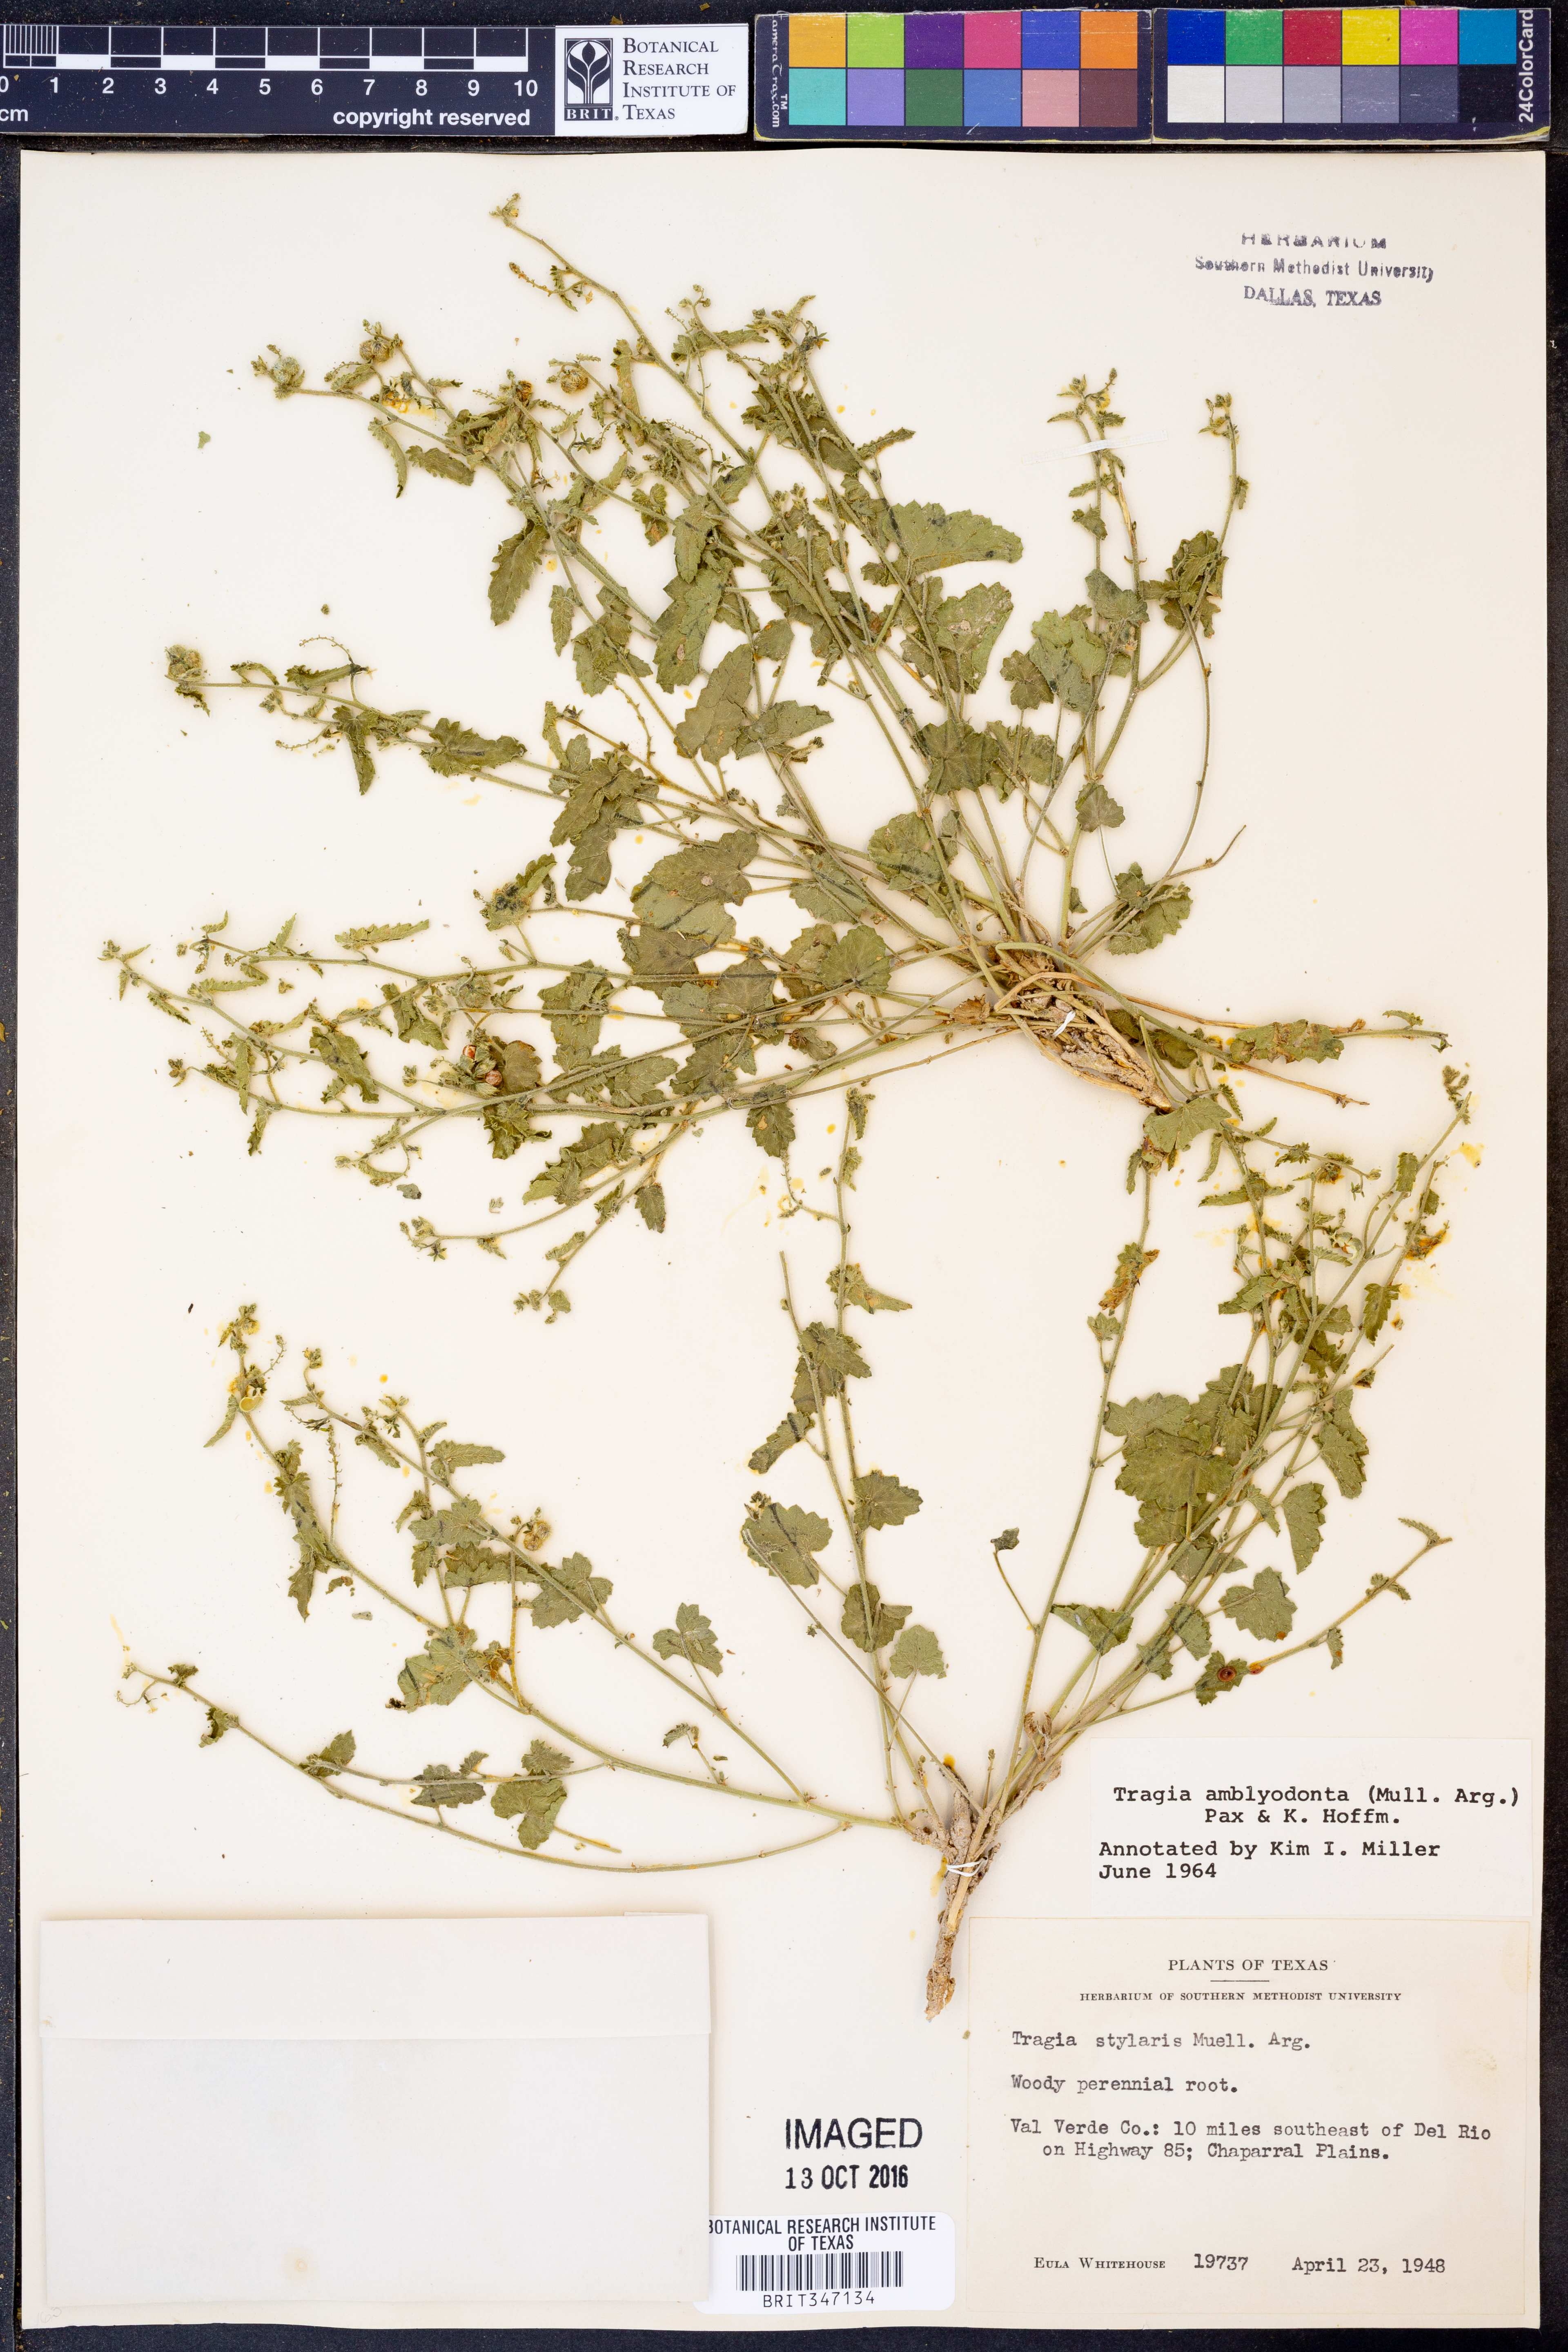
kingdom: Plantae
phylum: Tracheophyta
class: Magnoliopsida
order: Malpighiales
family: Euphorbiaceae
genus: Tragia
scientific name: Tragia amblyodonta
